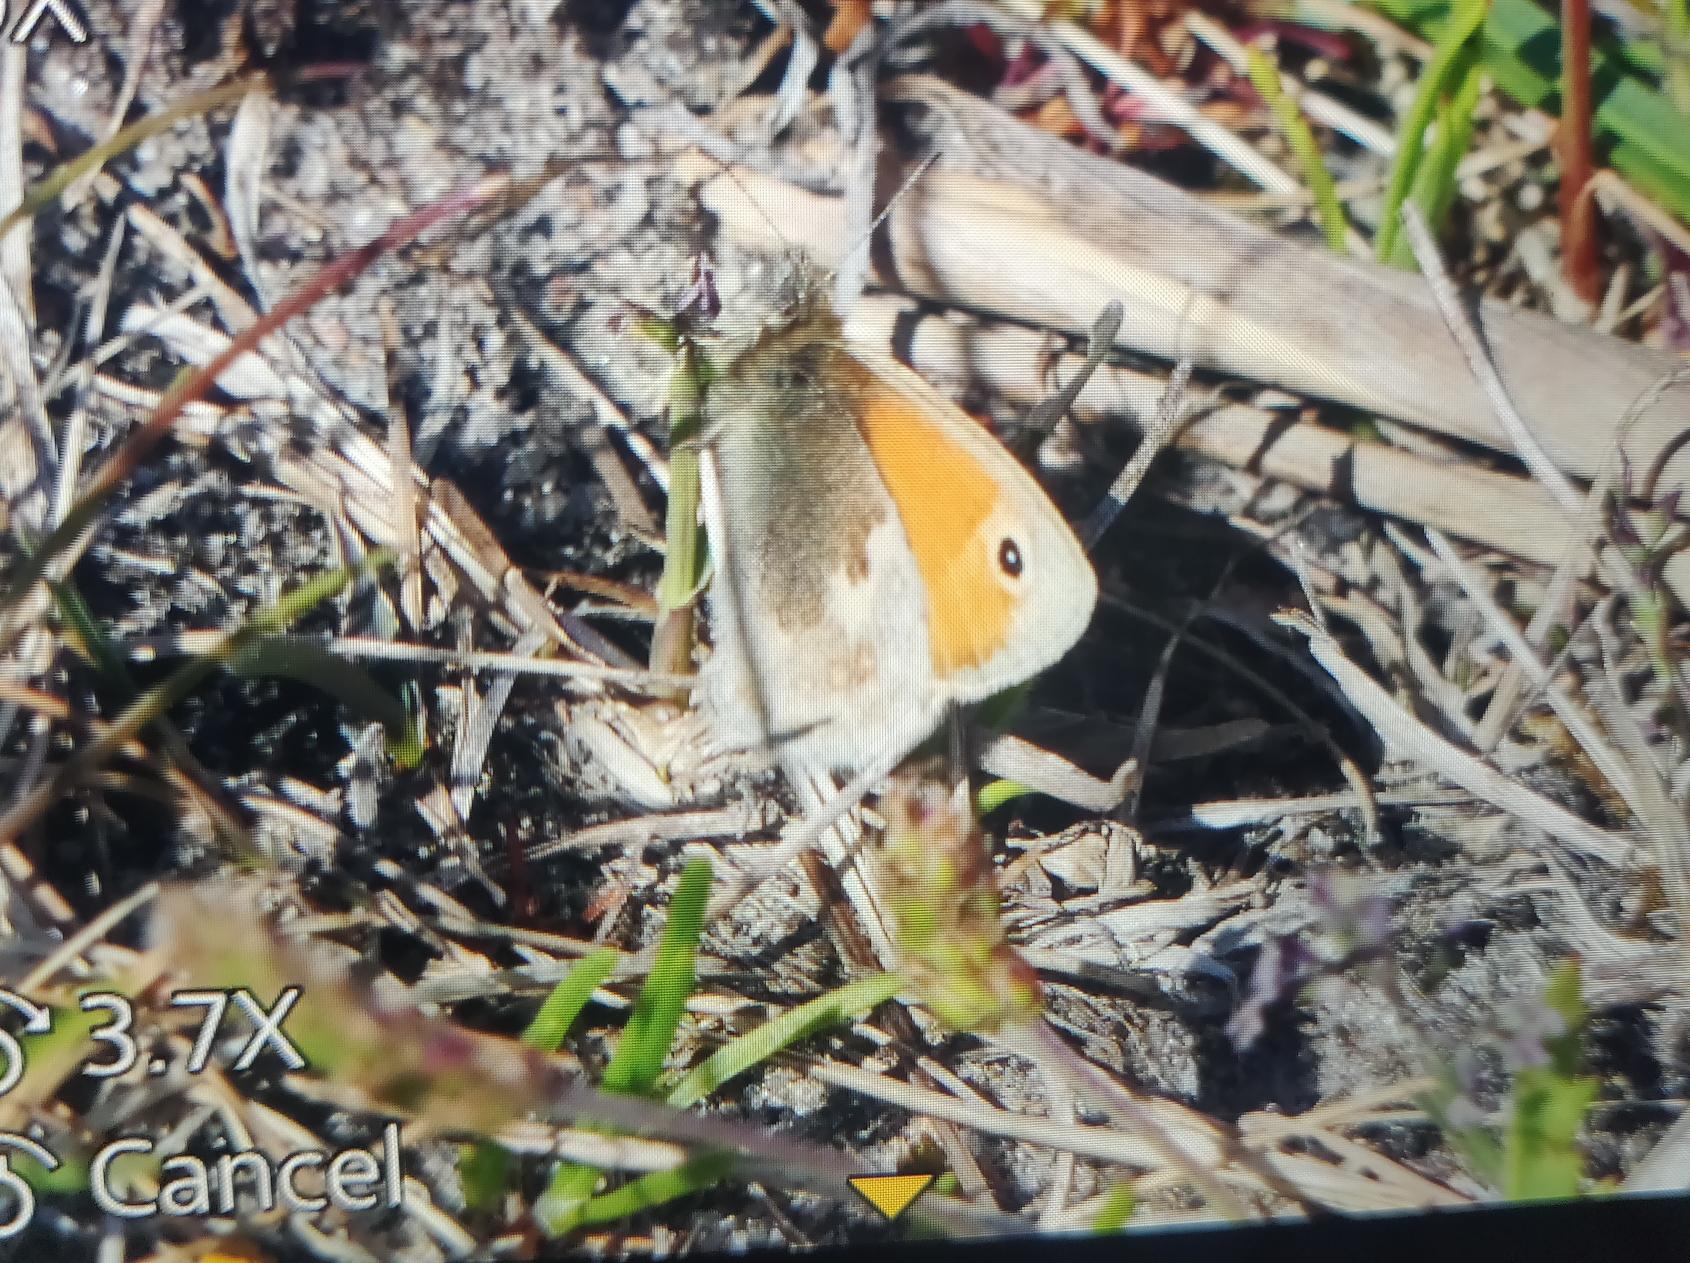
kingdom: Animalia
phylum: Arthropoda
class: Insecta
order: Lepidoptera
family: Nymphalidae
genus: Coenonympha
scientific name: Coenonympha pamphilus
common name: Okkergul randøje
